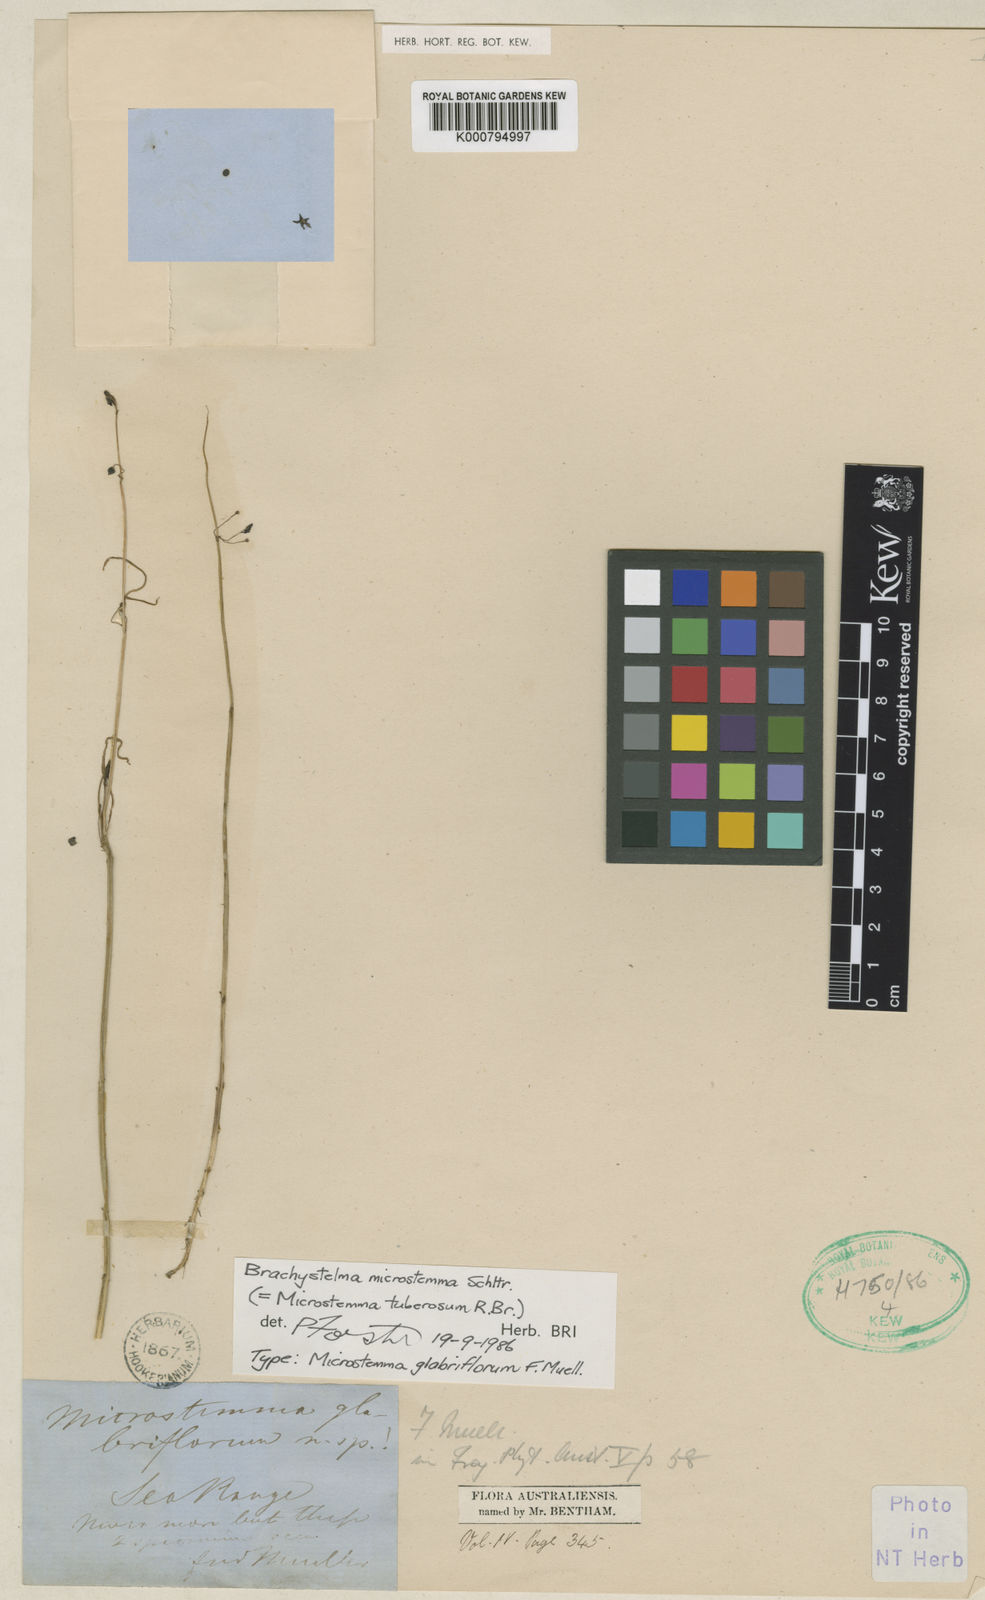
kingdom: Plantae
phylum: Tracheophyta
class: Magnoliopsida
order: Gentianales
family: Apocynaceae
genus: Ceropegia
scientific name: Ceropegia glabriflora
